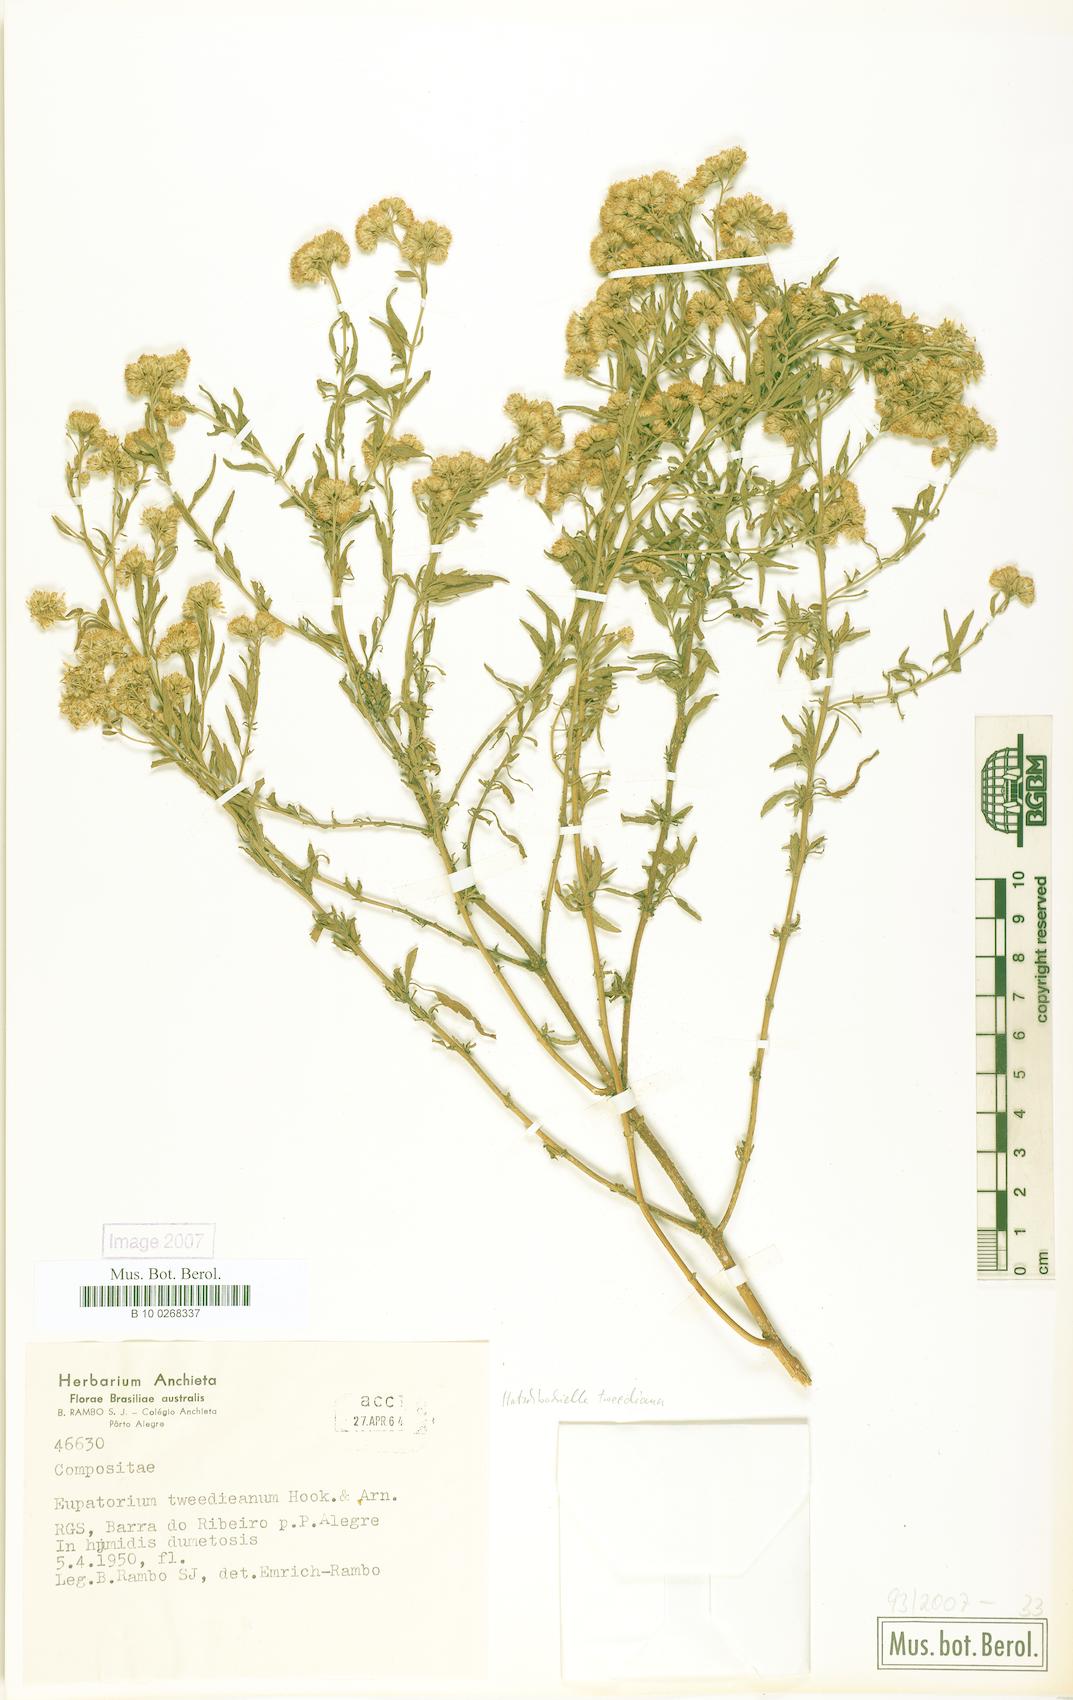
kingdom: Plantae
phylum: Tracheophyta
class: Magnoliopsida
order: Asterales
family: Asteraceae
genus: Hatschbachiella
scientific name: Hatschbachiella tweedieana
